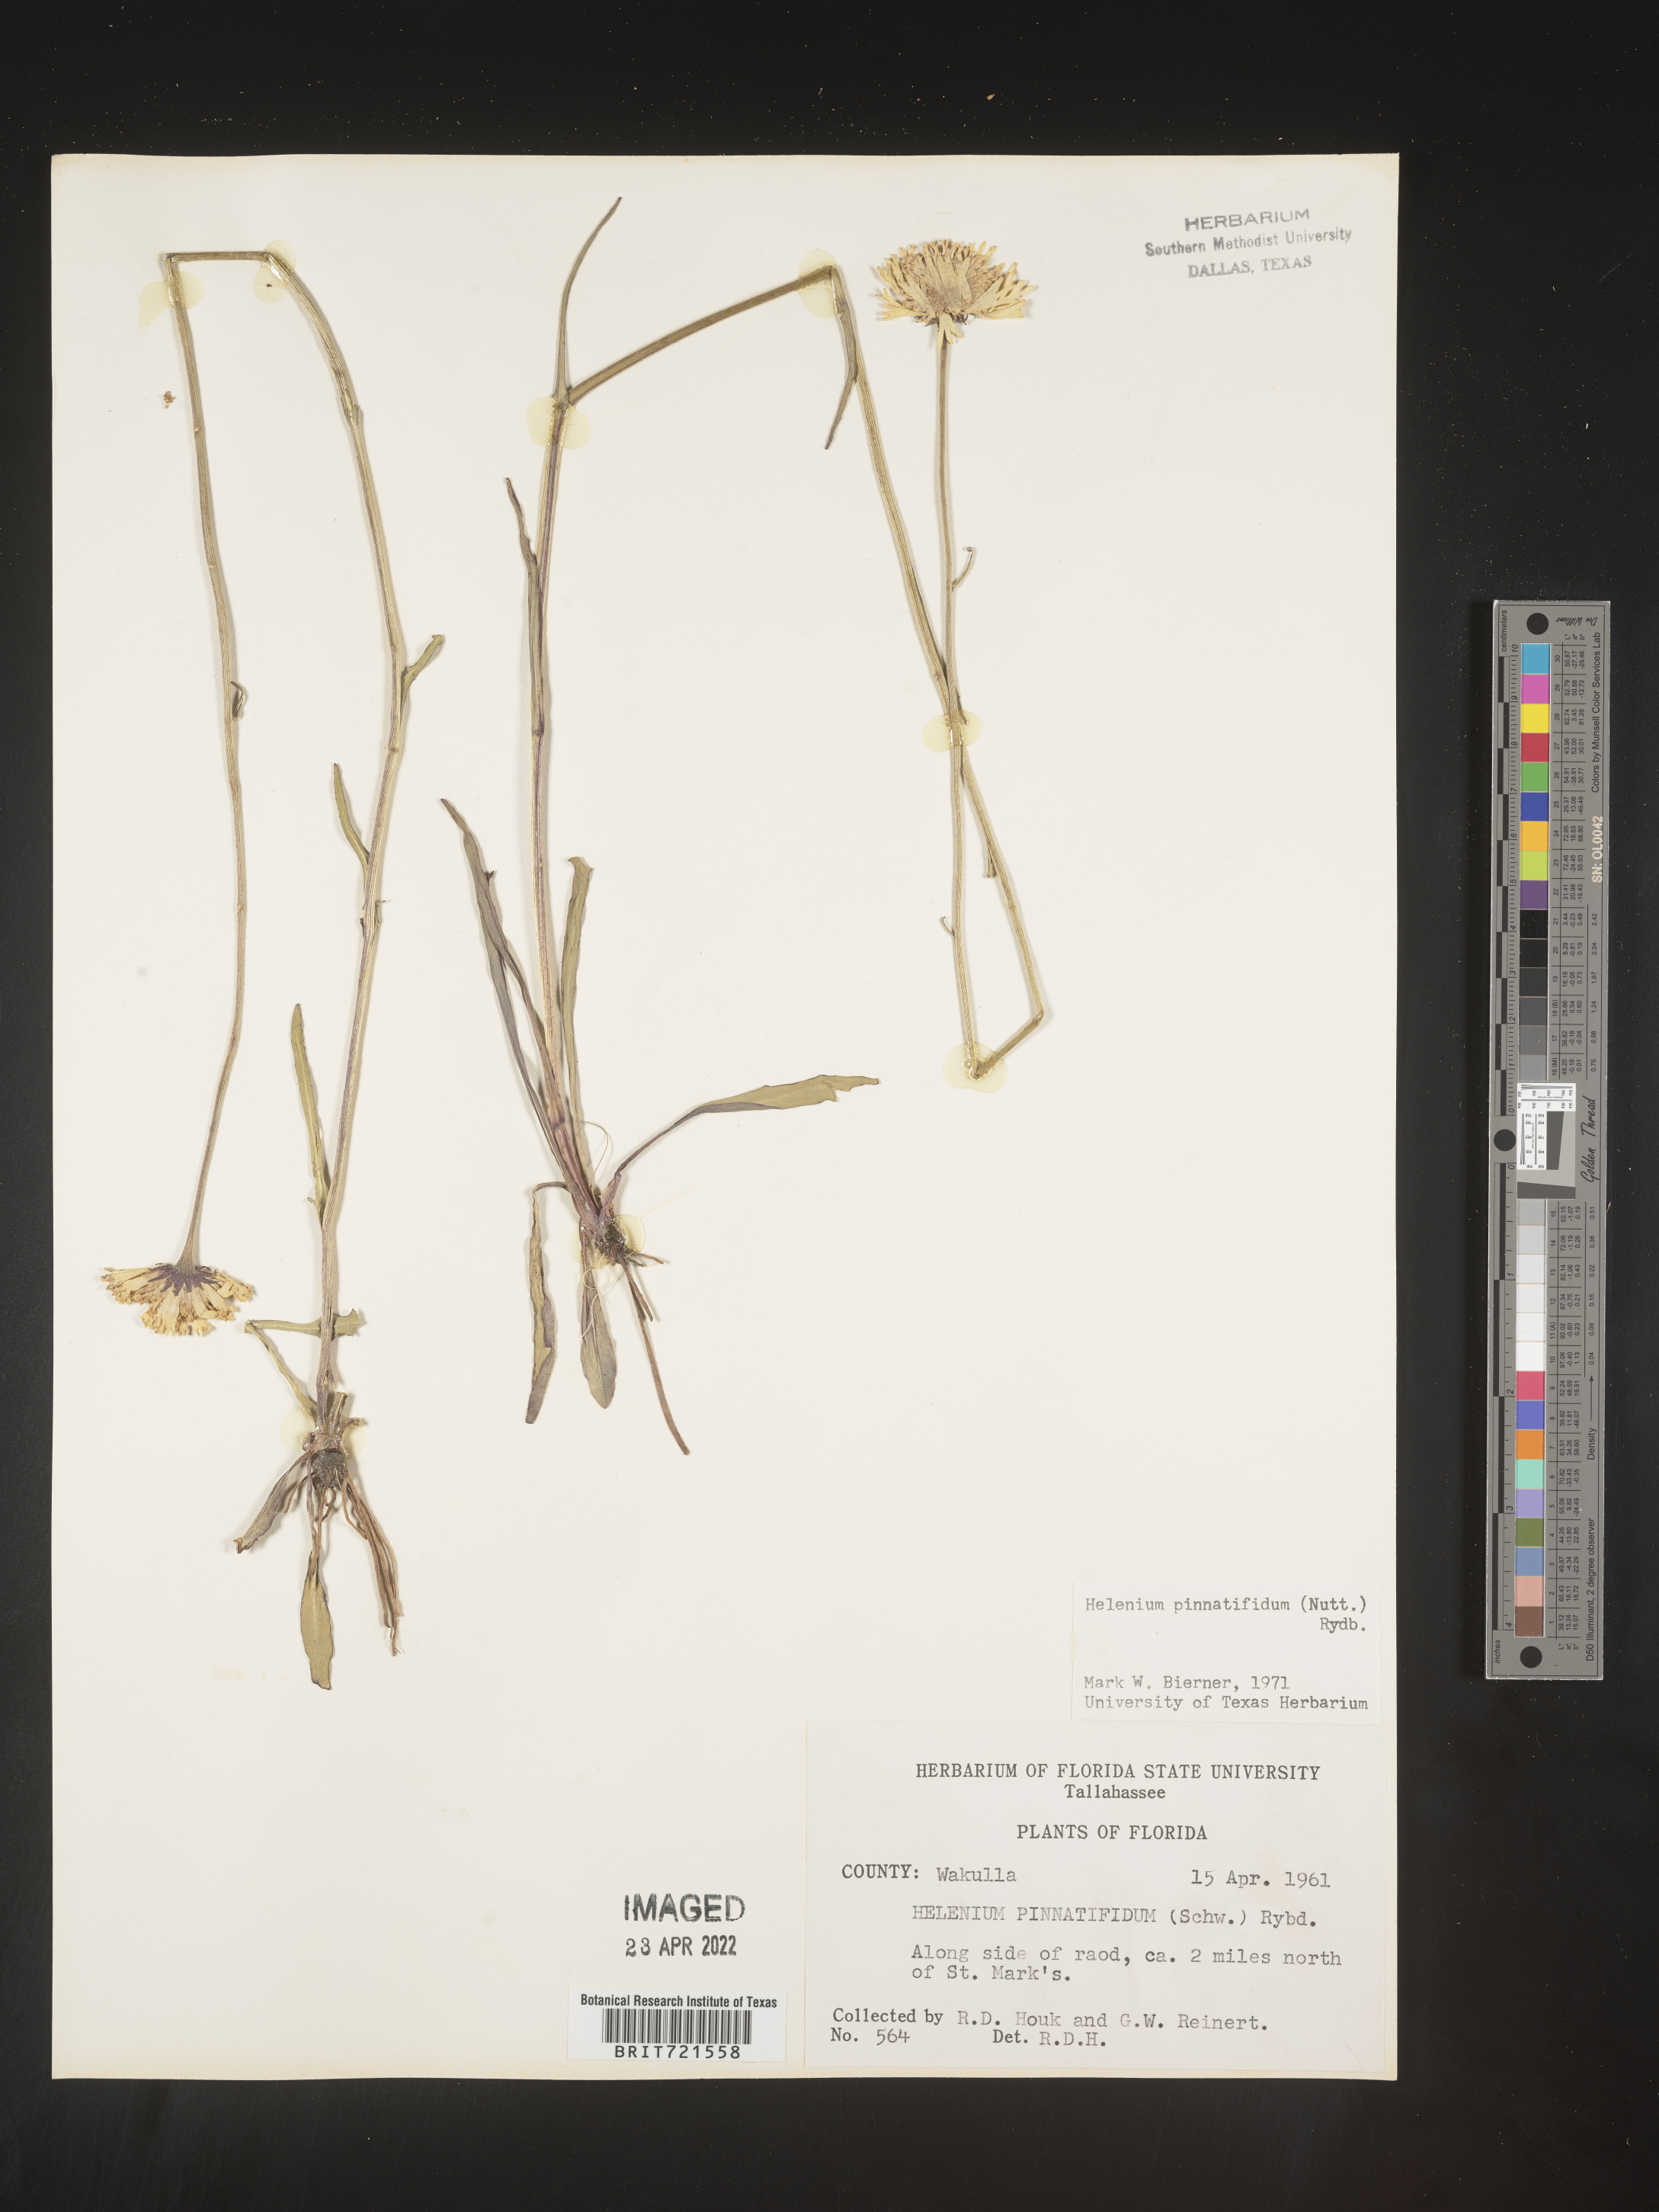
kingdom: Plantae
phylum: Tracheophyta
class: Magnoliopsida
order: Asterales
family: Asteraceae
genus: Helenium
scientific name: Helenium pinnatifidum
